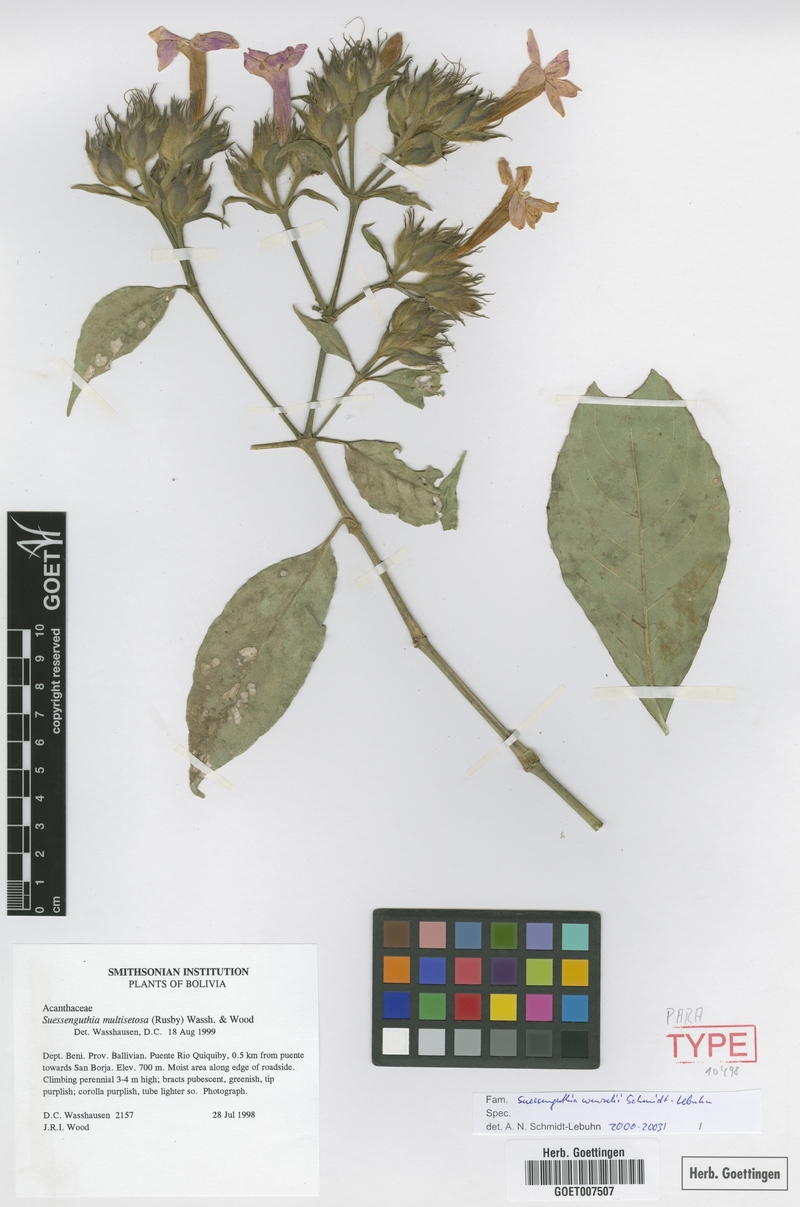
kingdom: Plantae
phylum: Tracheophyta
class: Magnoliopsida
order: Lamiales
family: Acanthaceae
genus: Suessenguthia
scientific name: Suessenguthia wenzelii
